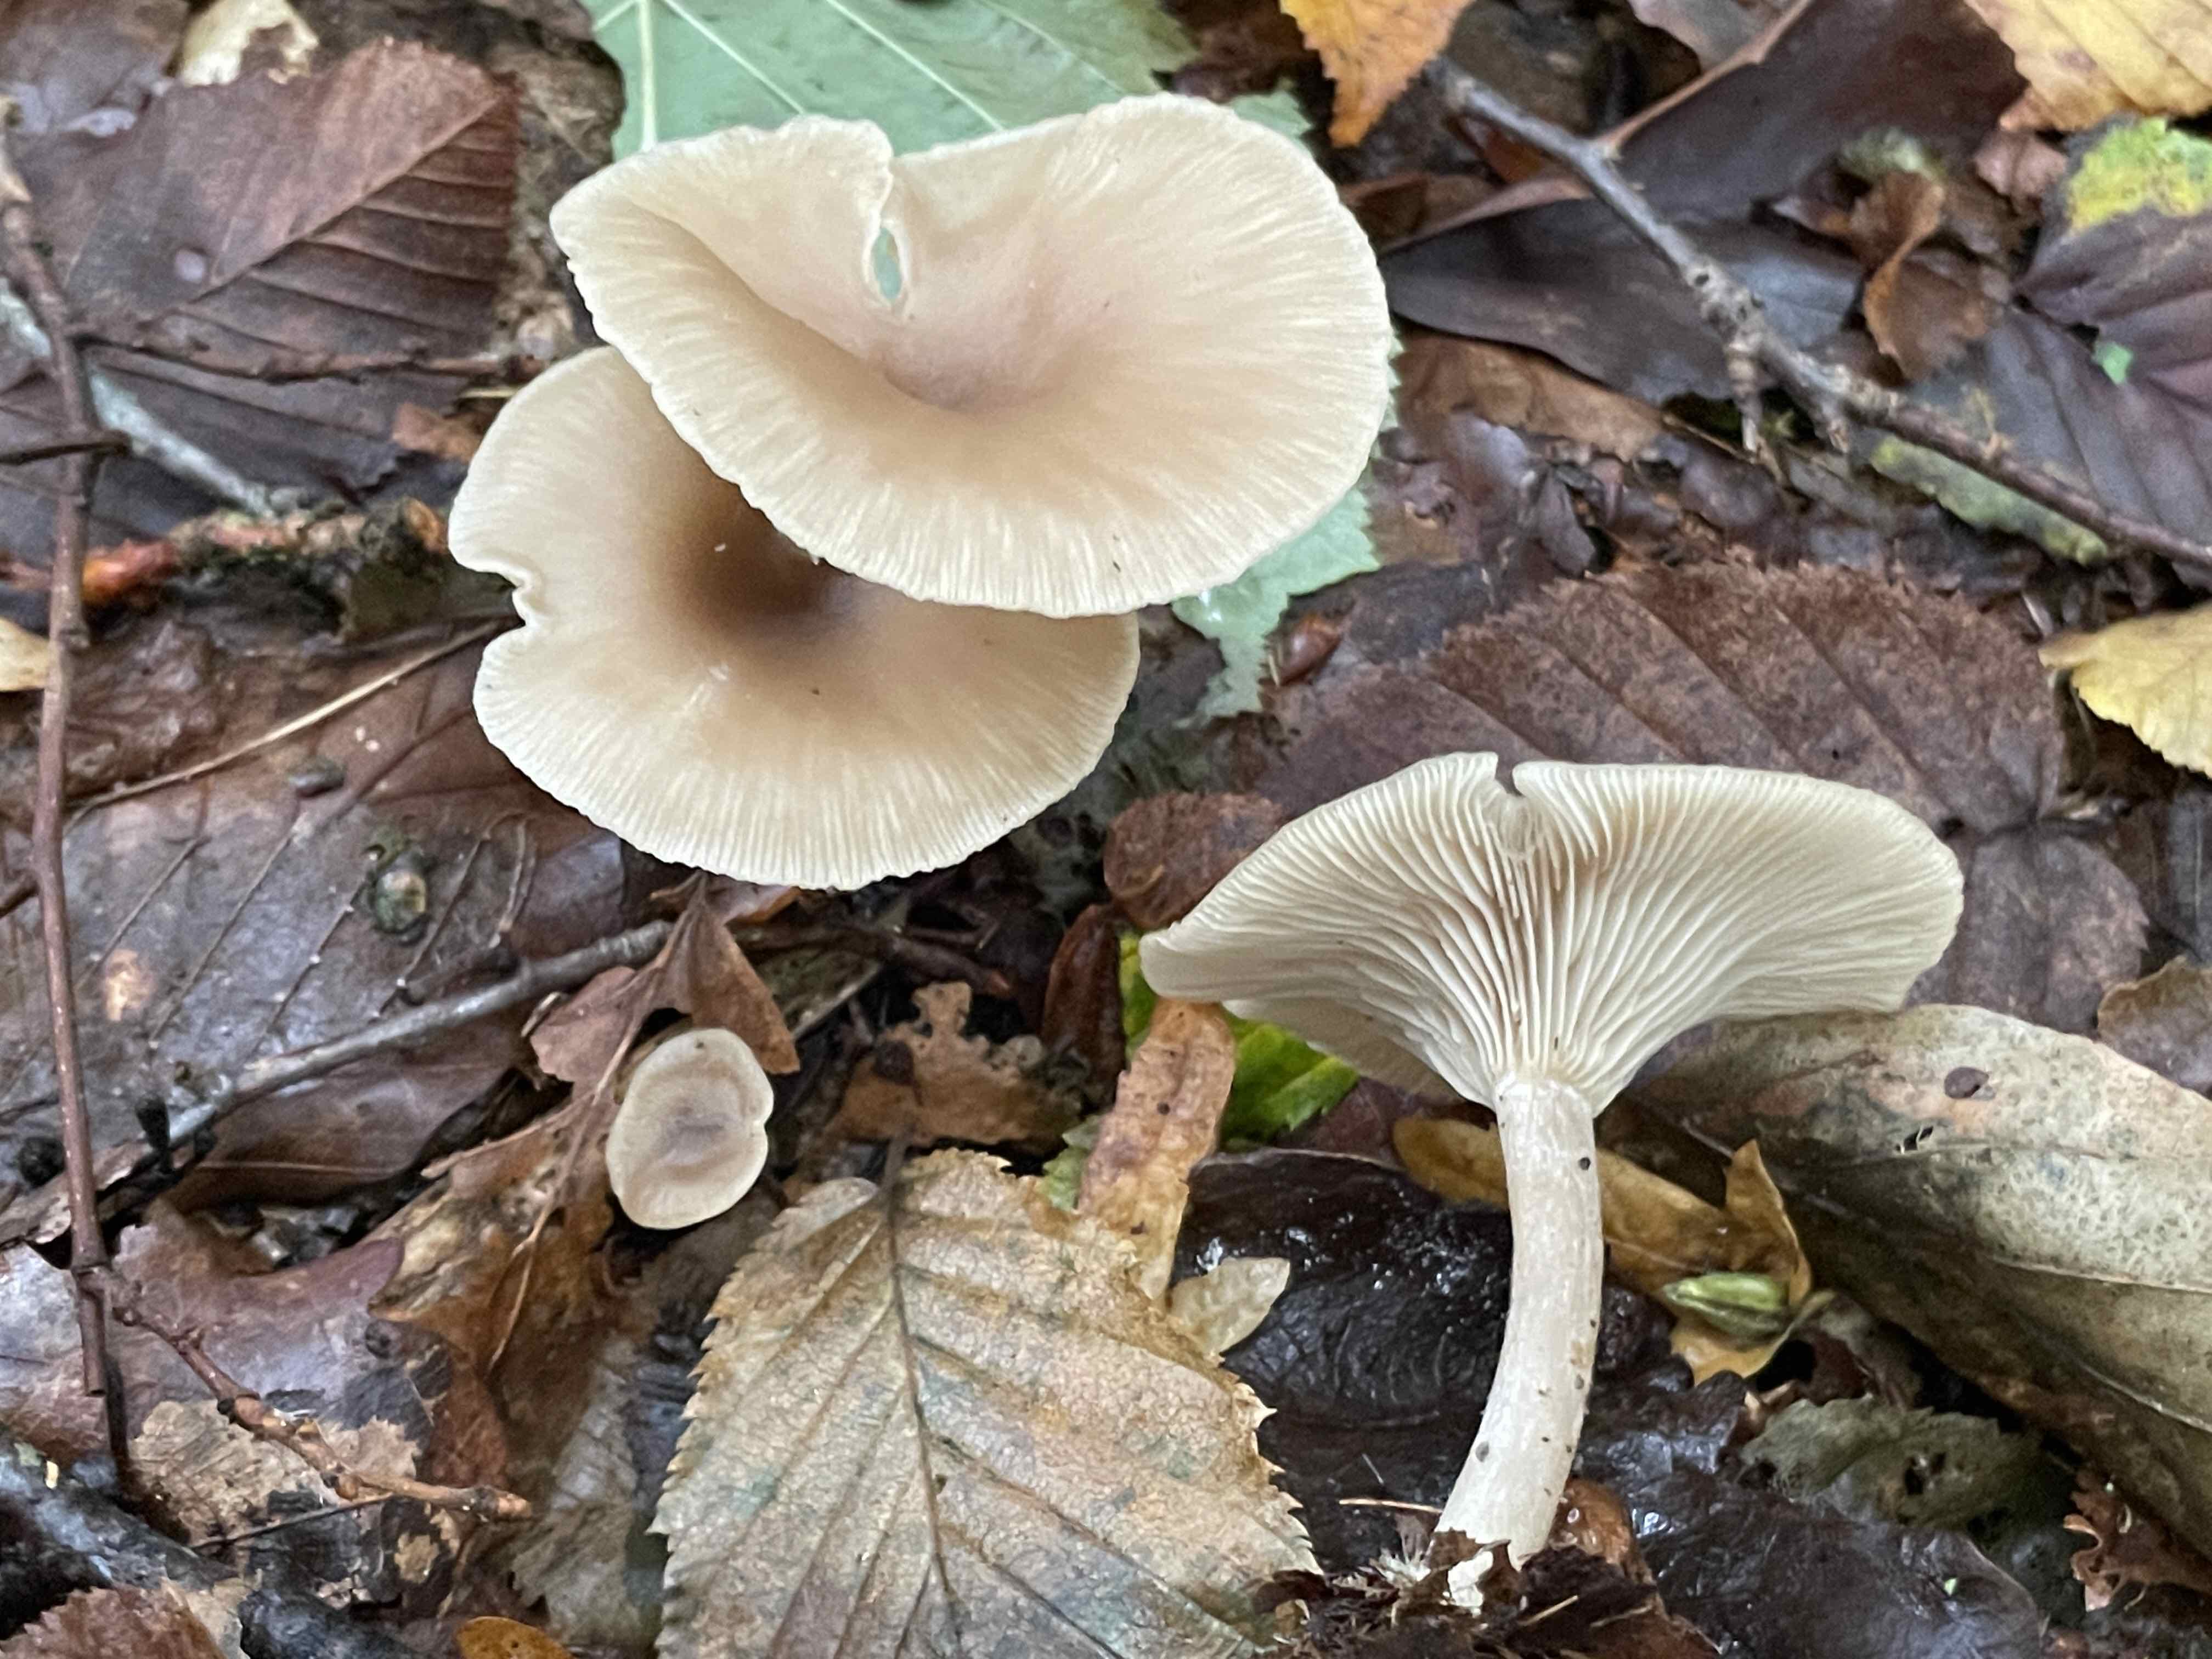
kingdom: Fungi
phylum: Basidiomycota
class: Agaricomycetes
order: Agaricales
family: Tricholomataceae
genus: Clitocybe
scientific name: Clitocybe subspadicea
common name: nitrøs tragthat
